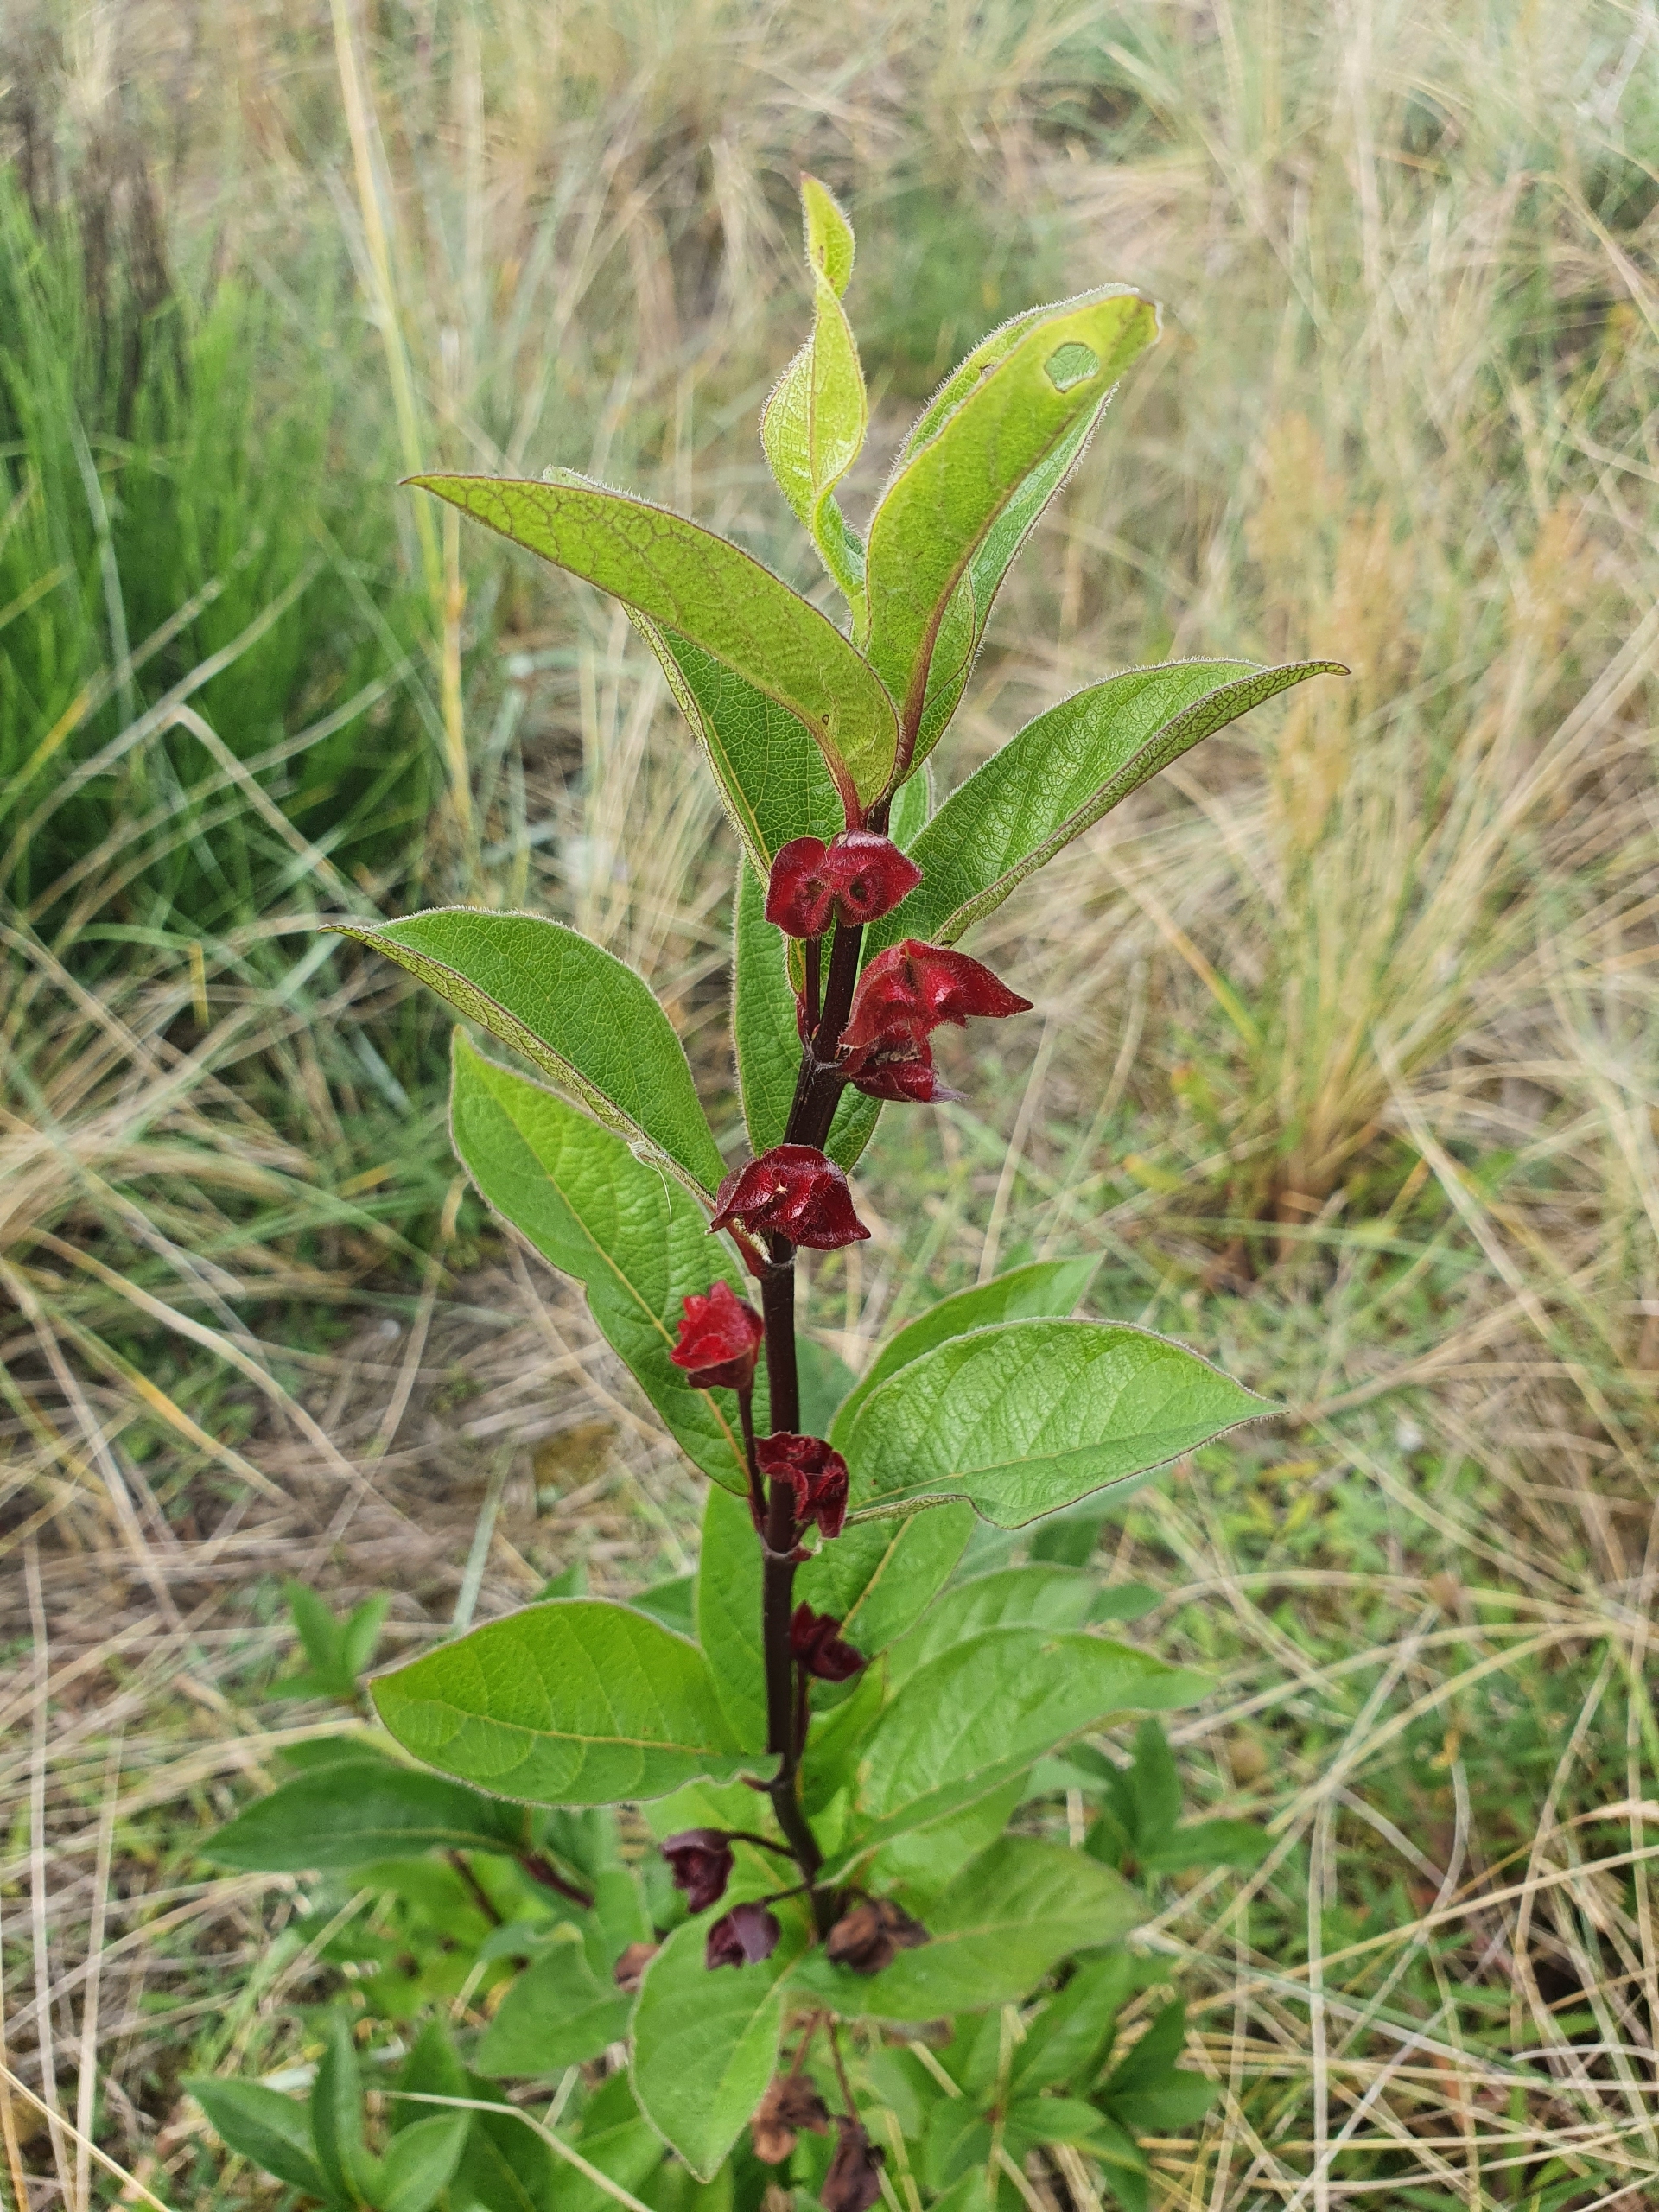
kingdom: Plantae
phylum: Tracheophyta
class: Magnoliopsida
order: Dipsacales
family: Caprifoliaceae
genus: Lonicera
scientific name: Lonicera involucrata
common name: Californisk gedeblad
